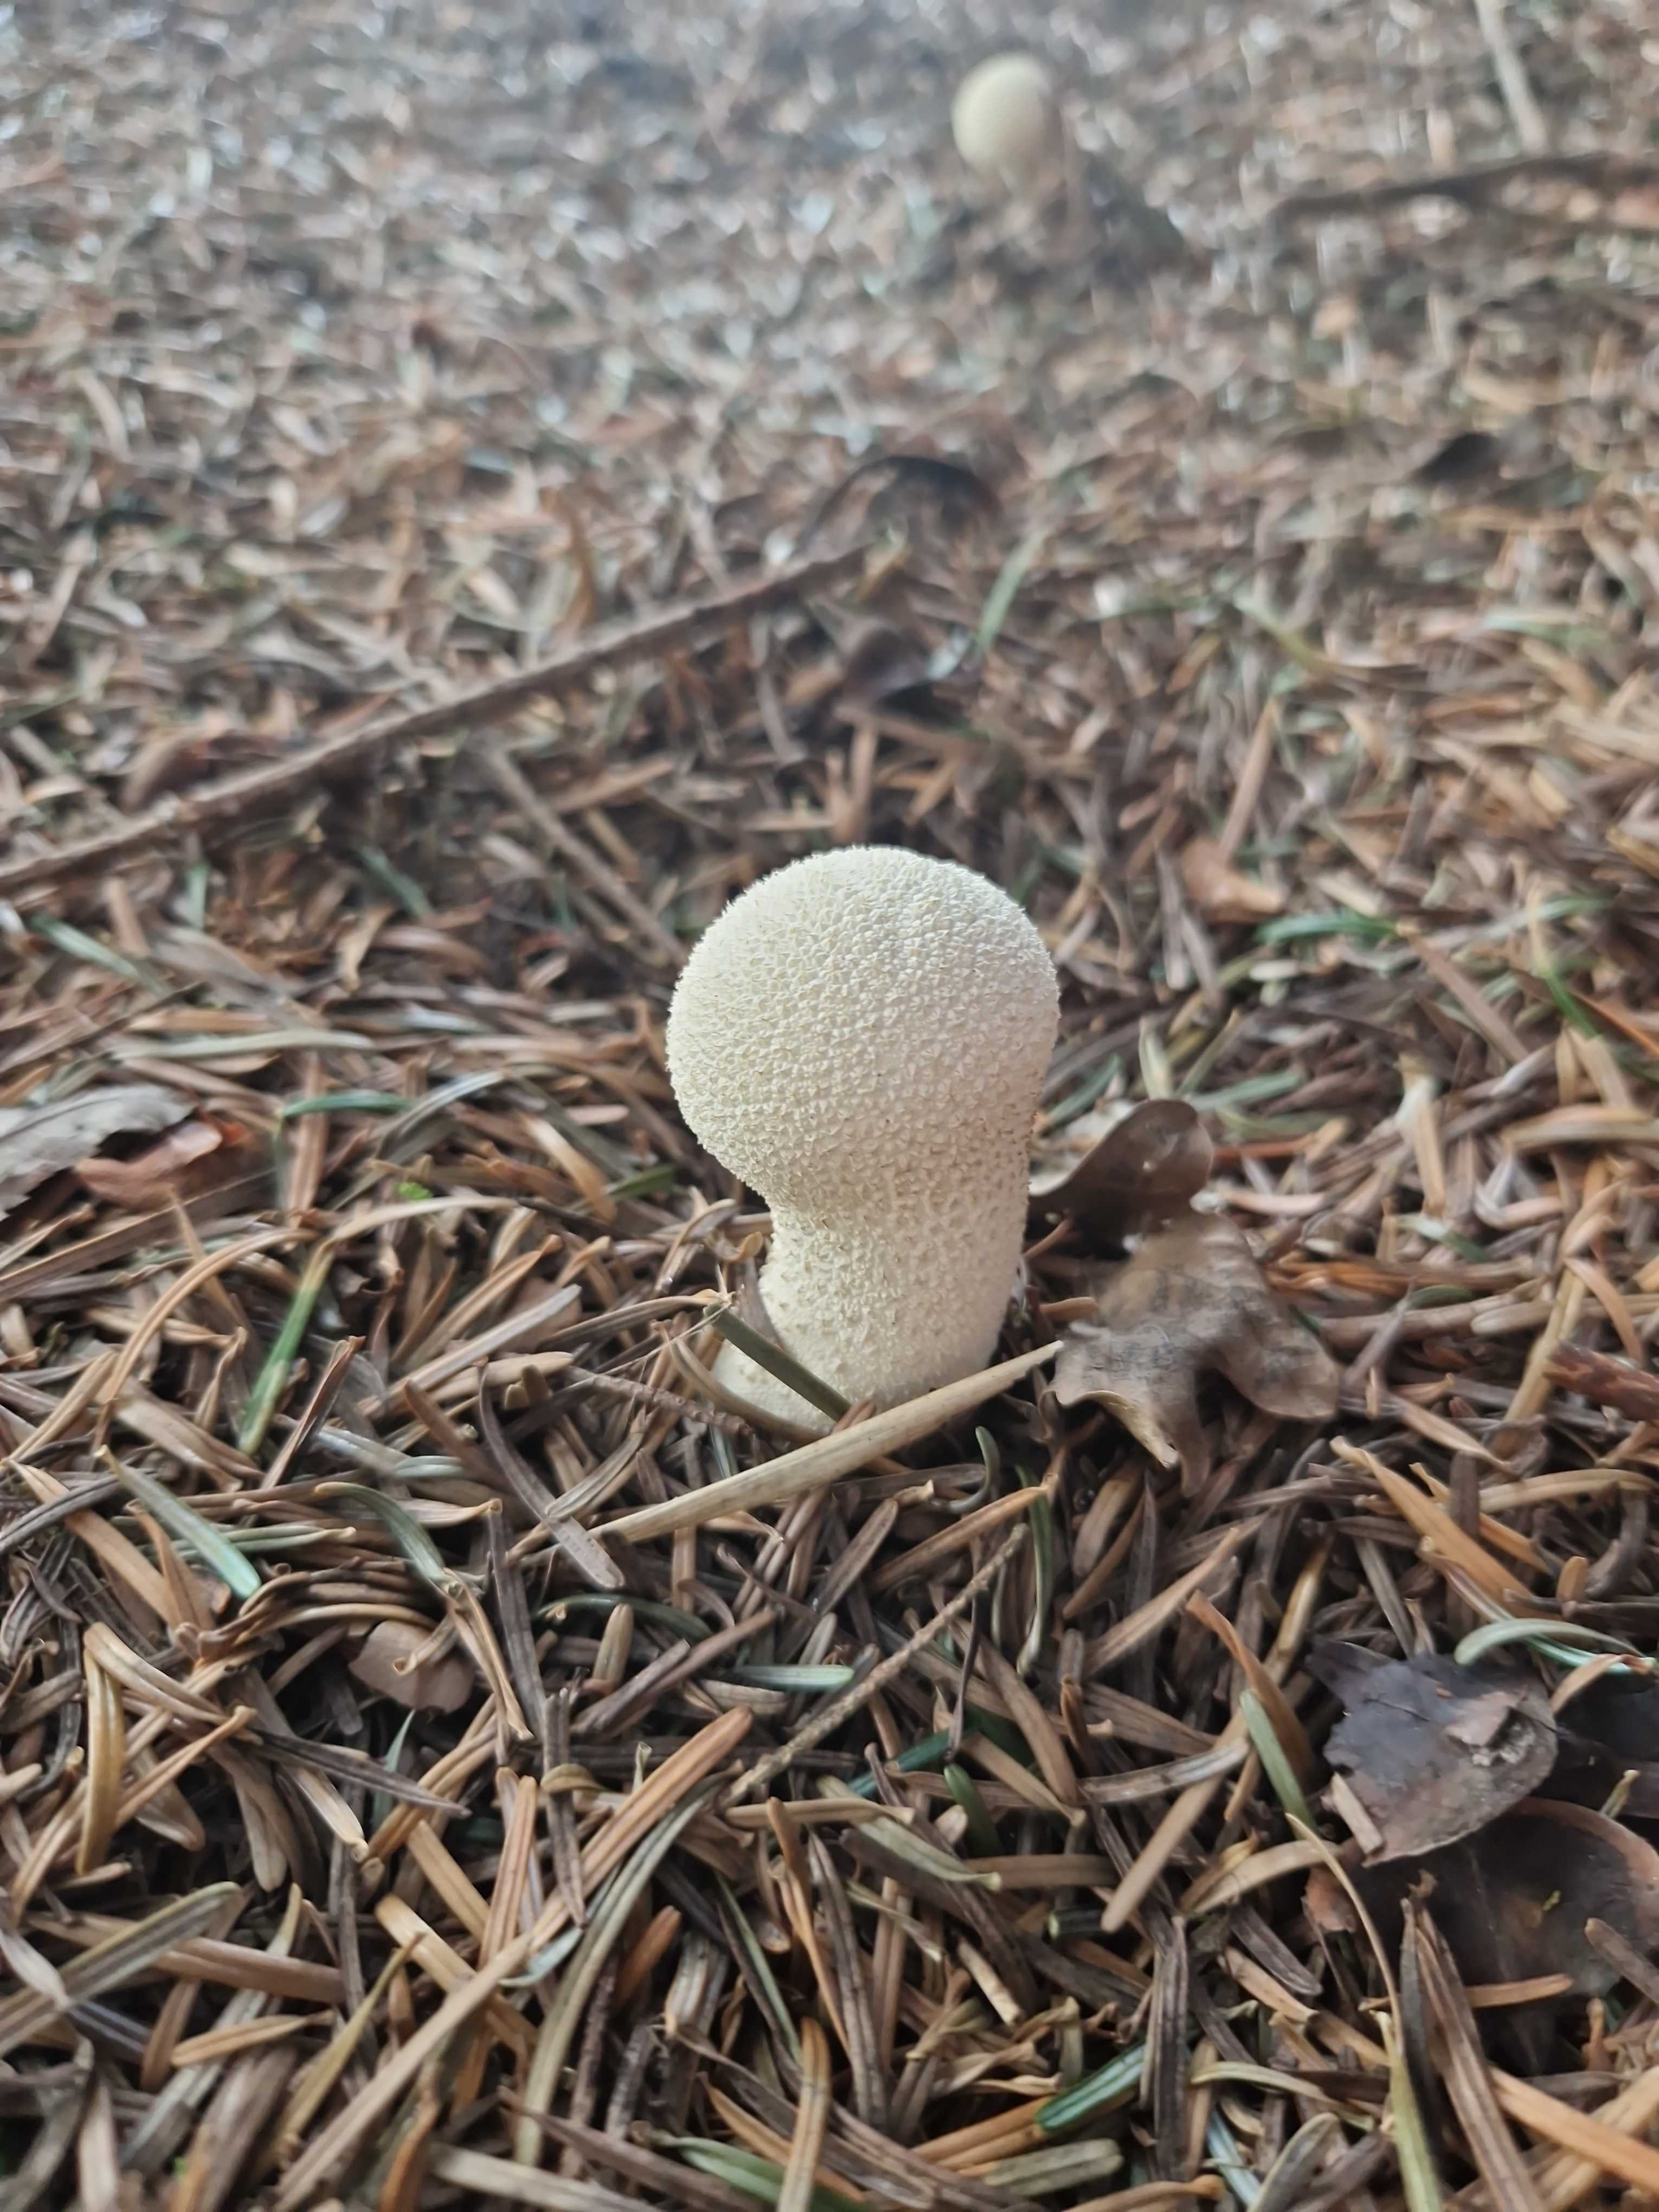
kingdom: Fungi
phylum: Basidiomycota
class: Agaricomycetes
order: Agaricales
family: Lycoperdaceae
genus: Lycoperdon
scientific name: Lycoperdon perlatum
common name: krystal-støvbold
